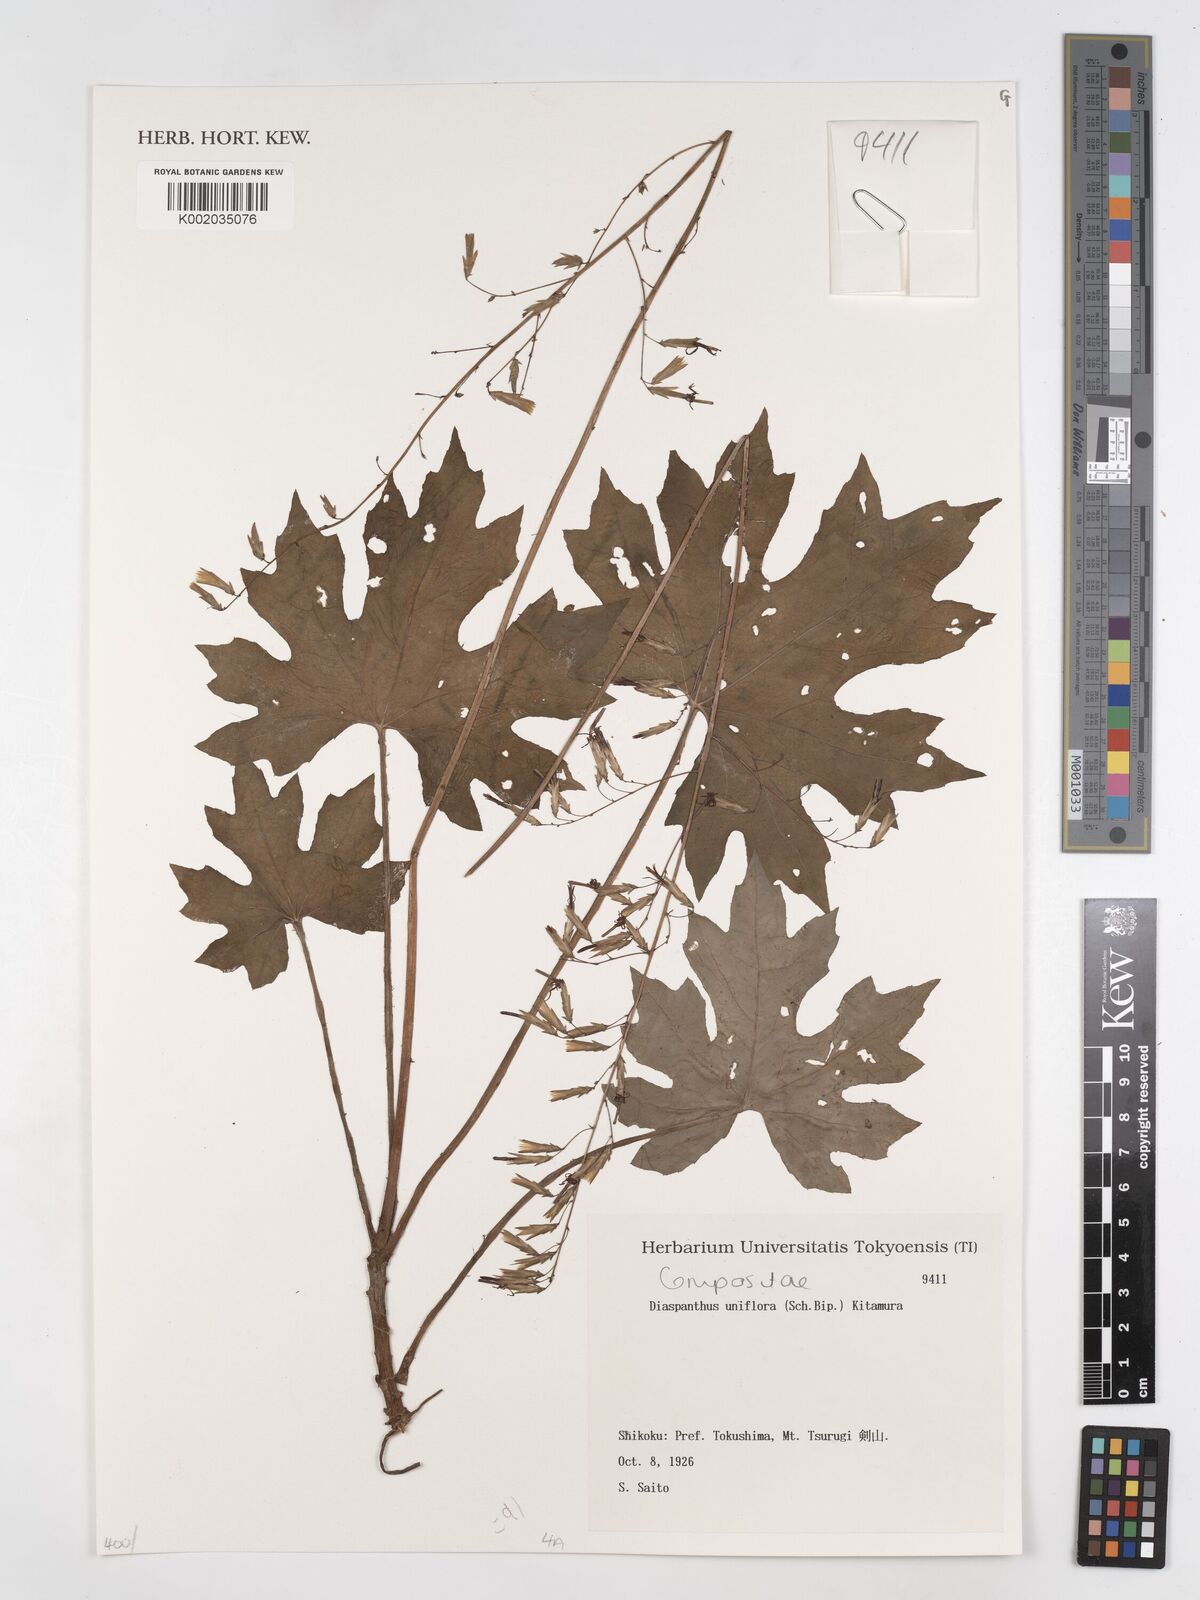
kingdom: Plantae
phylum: Tracheophyta
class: Magnoliopsida
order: Asterales
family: Asteraceae
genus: Ainsliaea
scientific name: Ainsliaea uniflora
